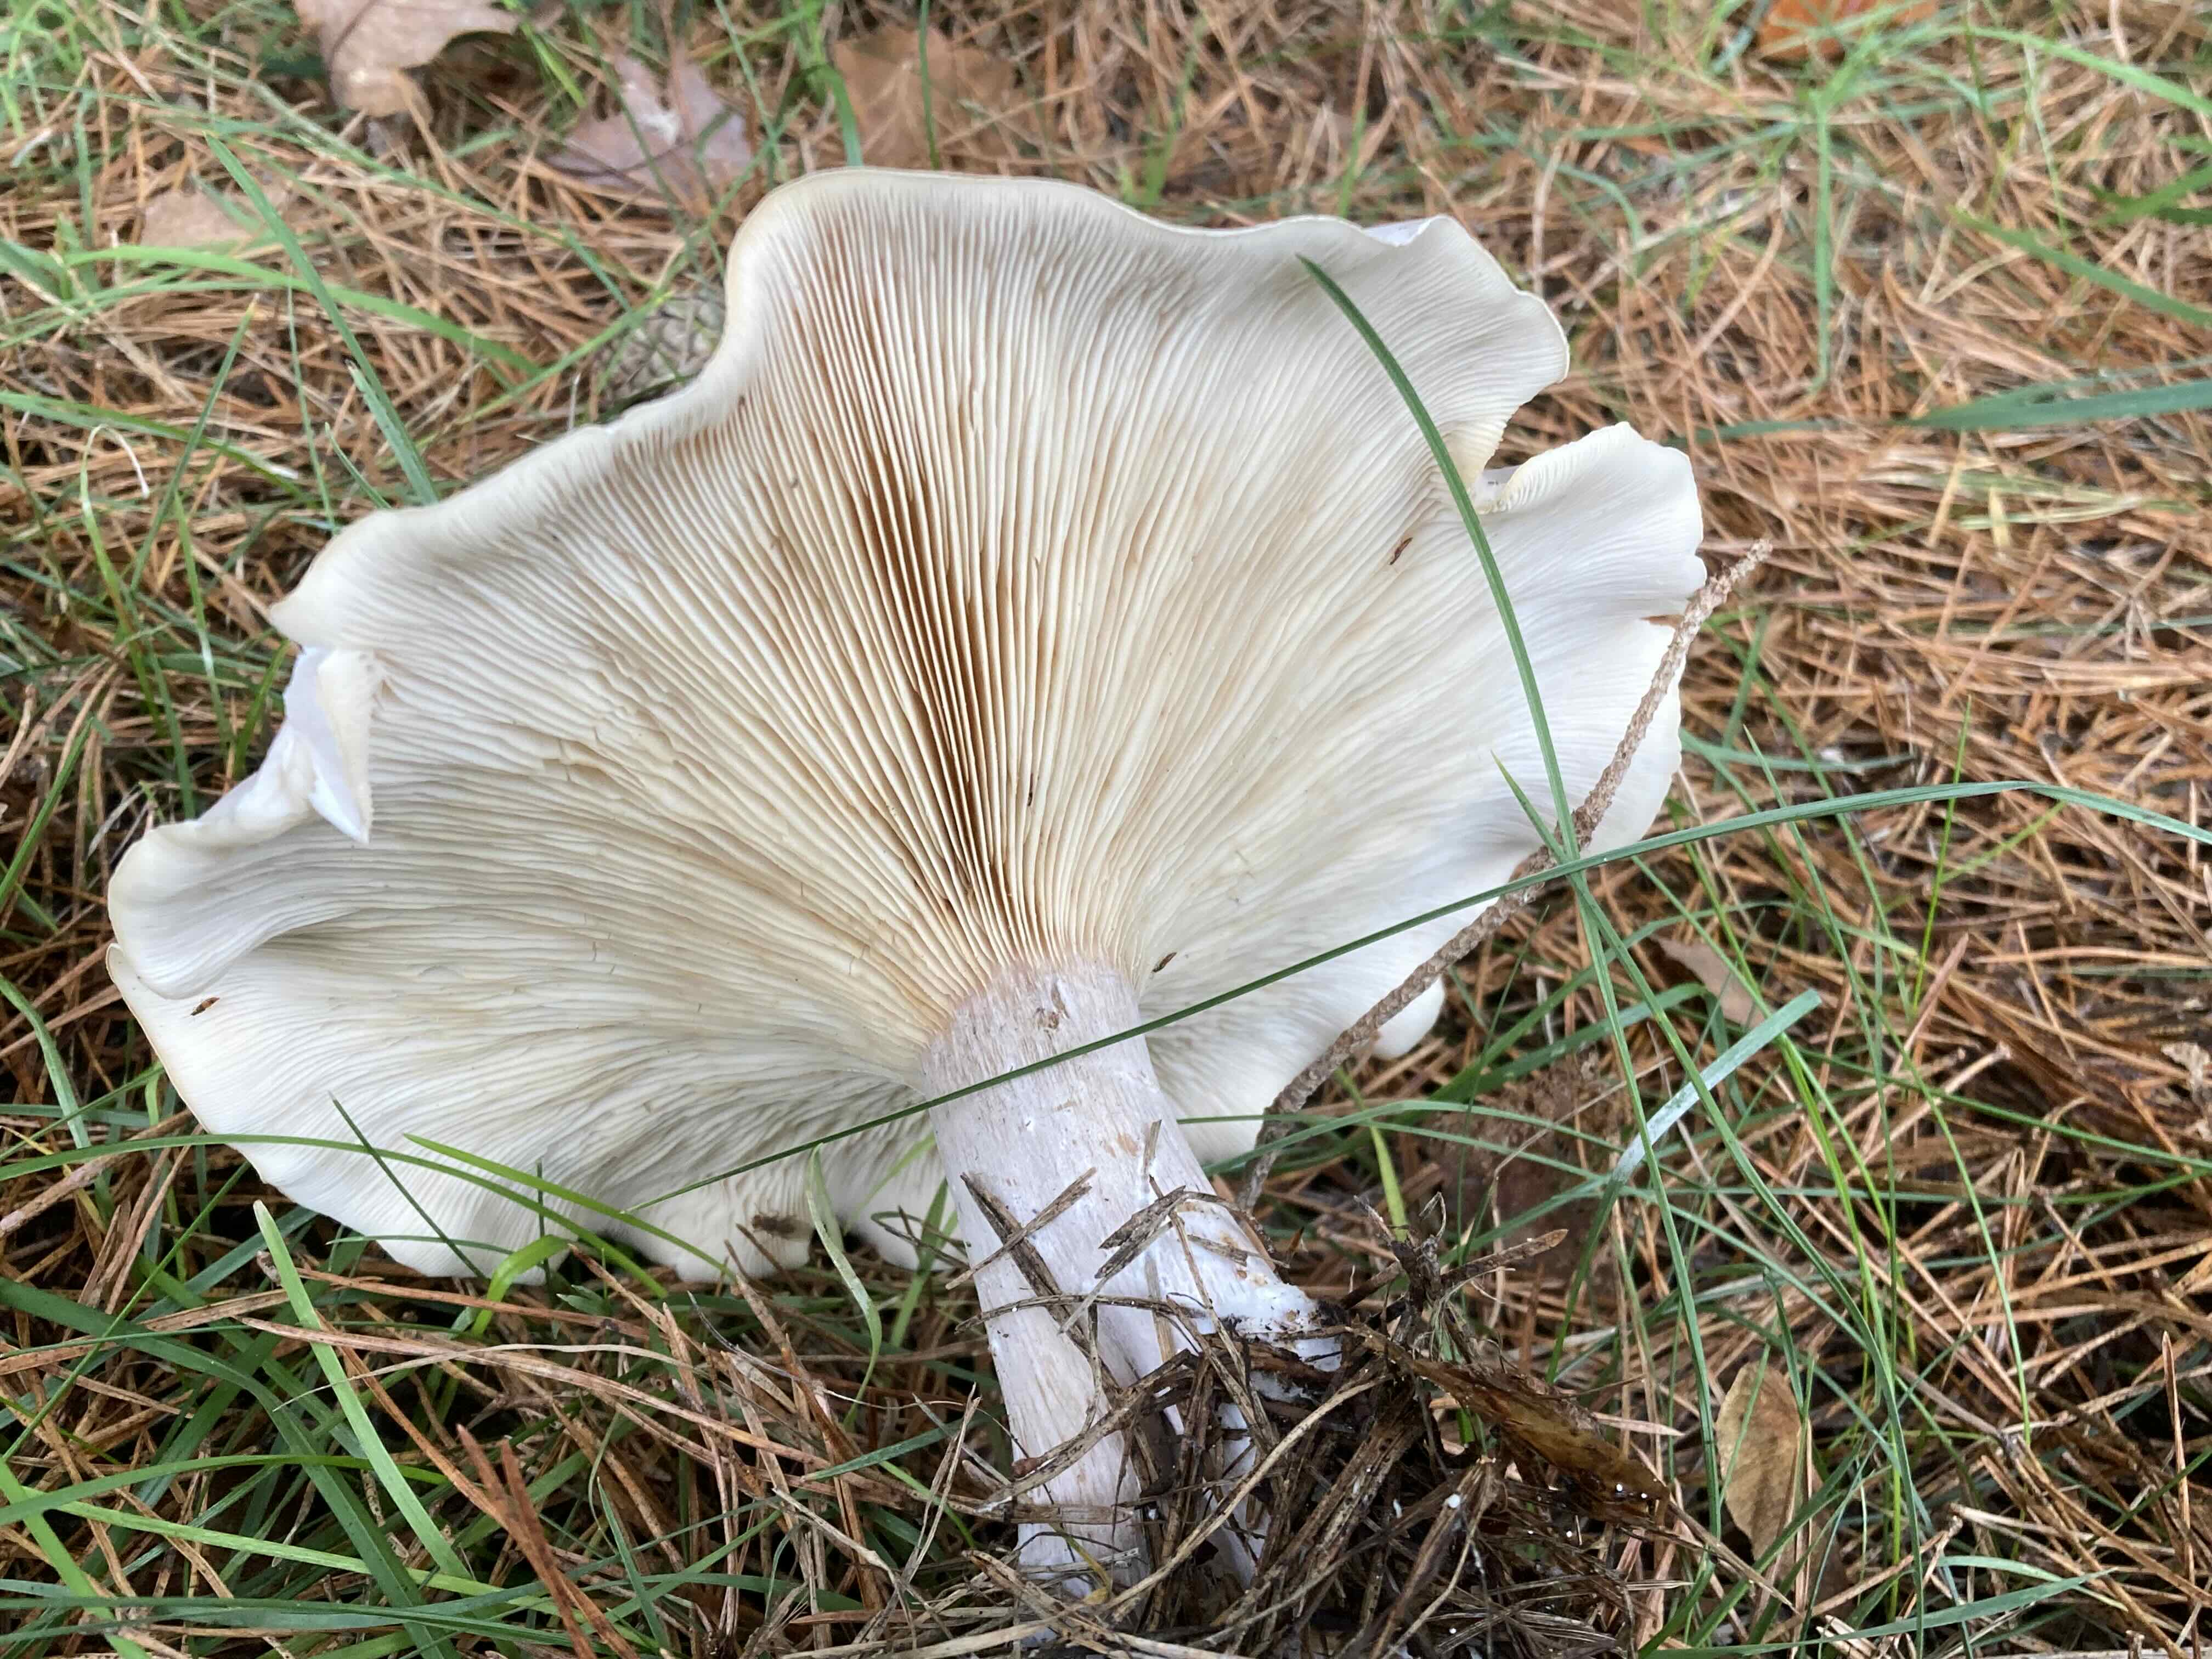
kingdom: Fungi
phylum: Basidiomycota
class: Agaricomycetes
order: Agaricales
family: Tricholomataceae
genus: Clitocybe
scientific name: Clitocybe nebularis
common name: tåge-tragthat
